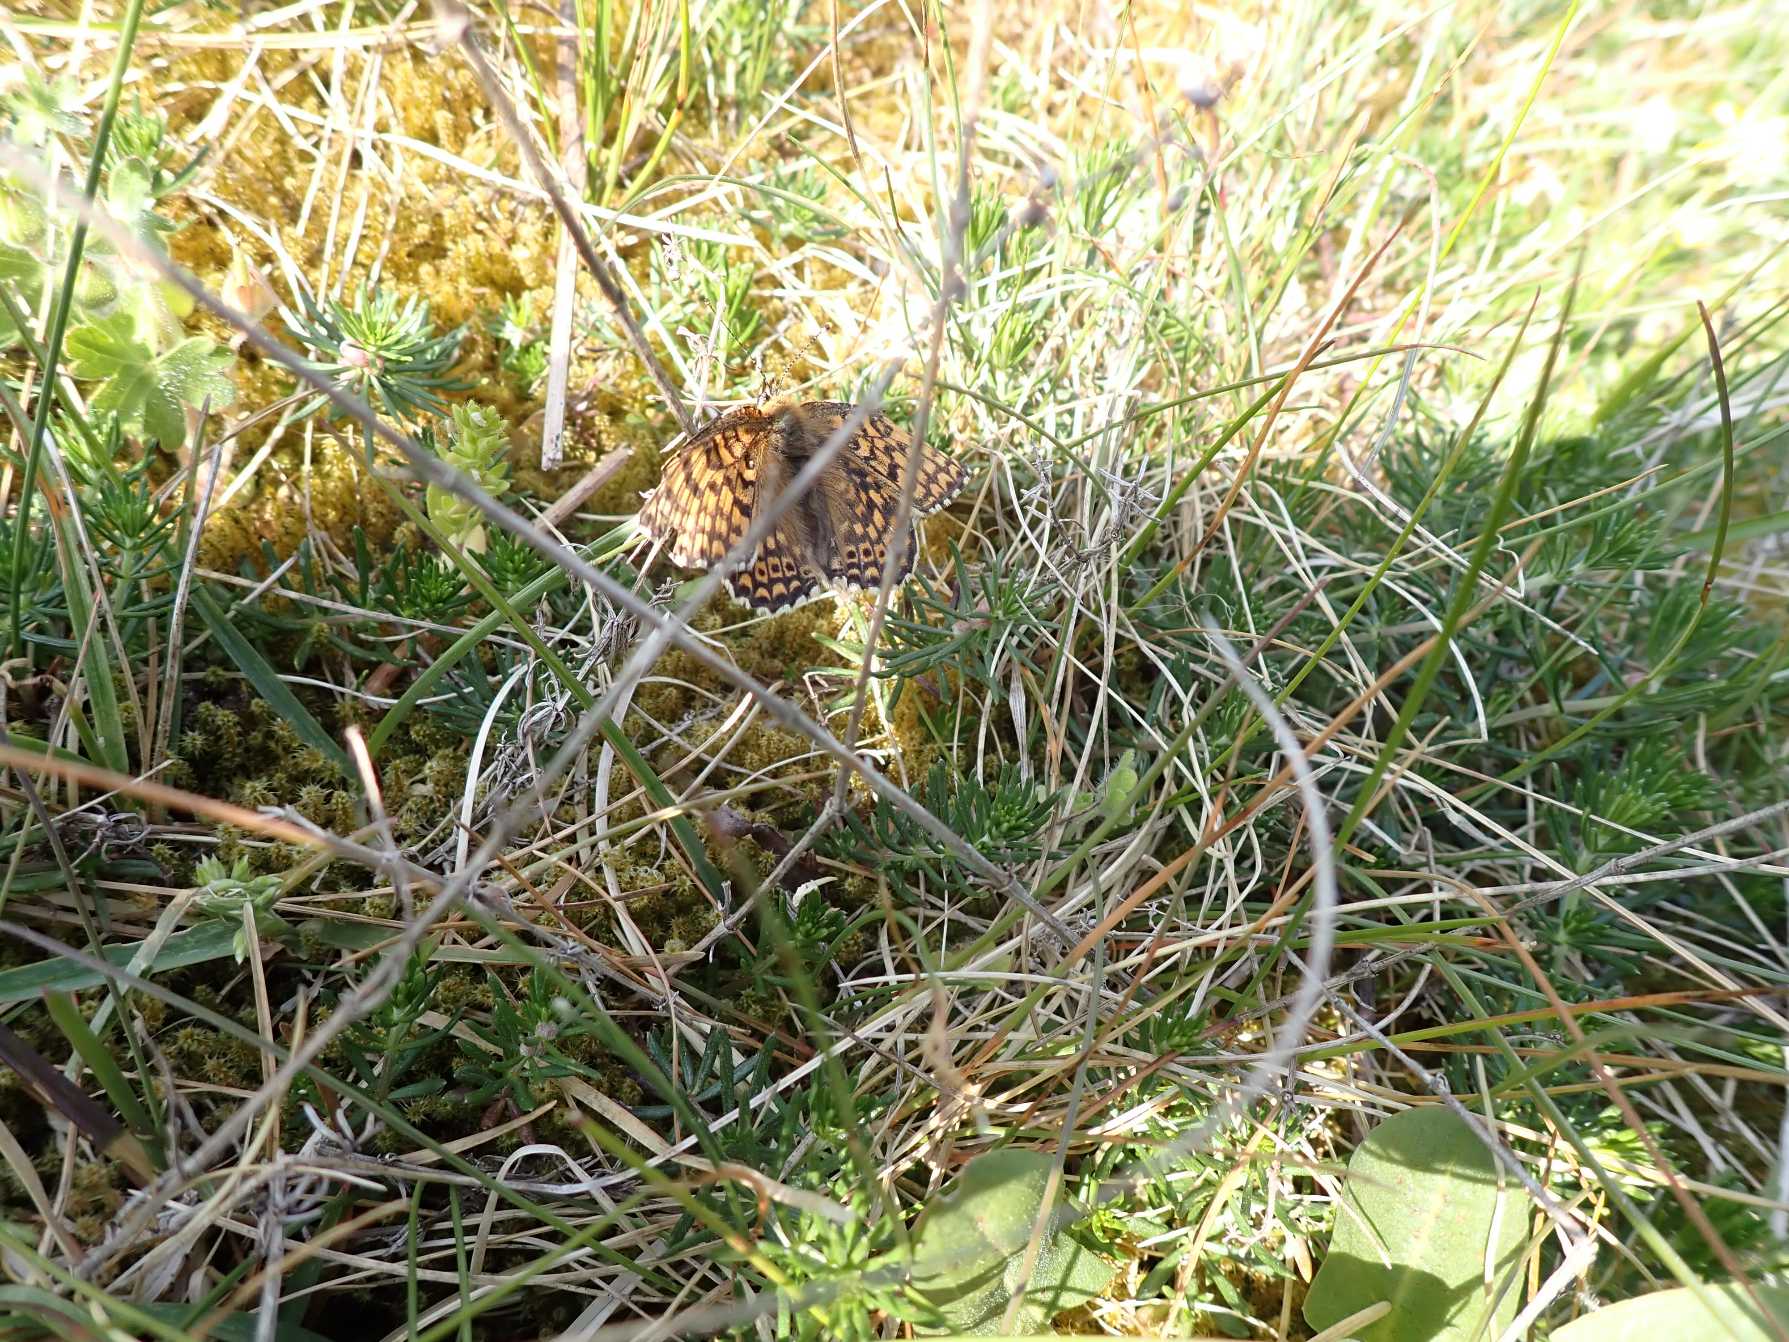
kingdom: Animalia
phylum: Arthropoda
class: Insecta
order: Lepidoptera
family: Nymphalidae
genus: Melitaea
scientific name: Melitaea cinxia
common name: Okkergul pletvinge
